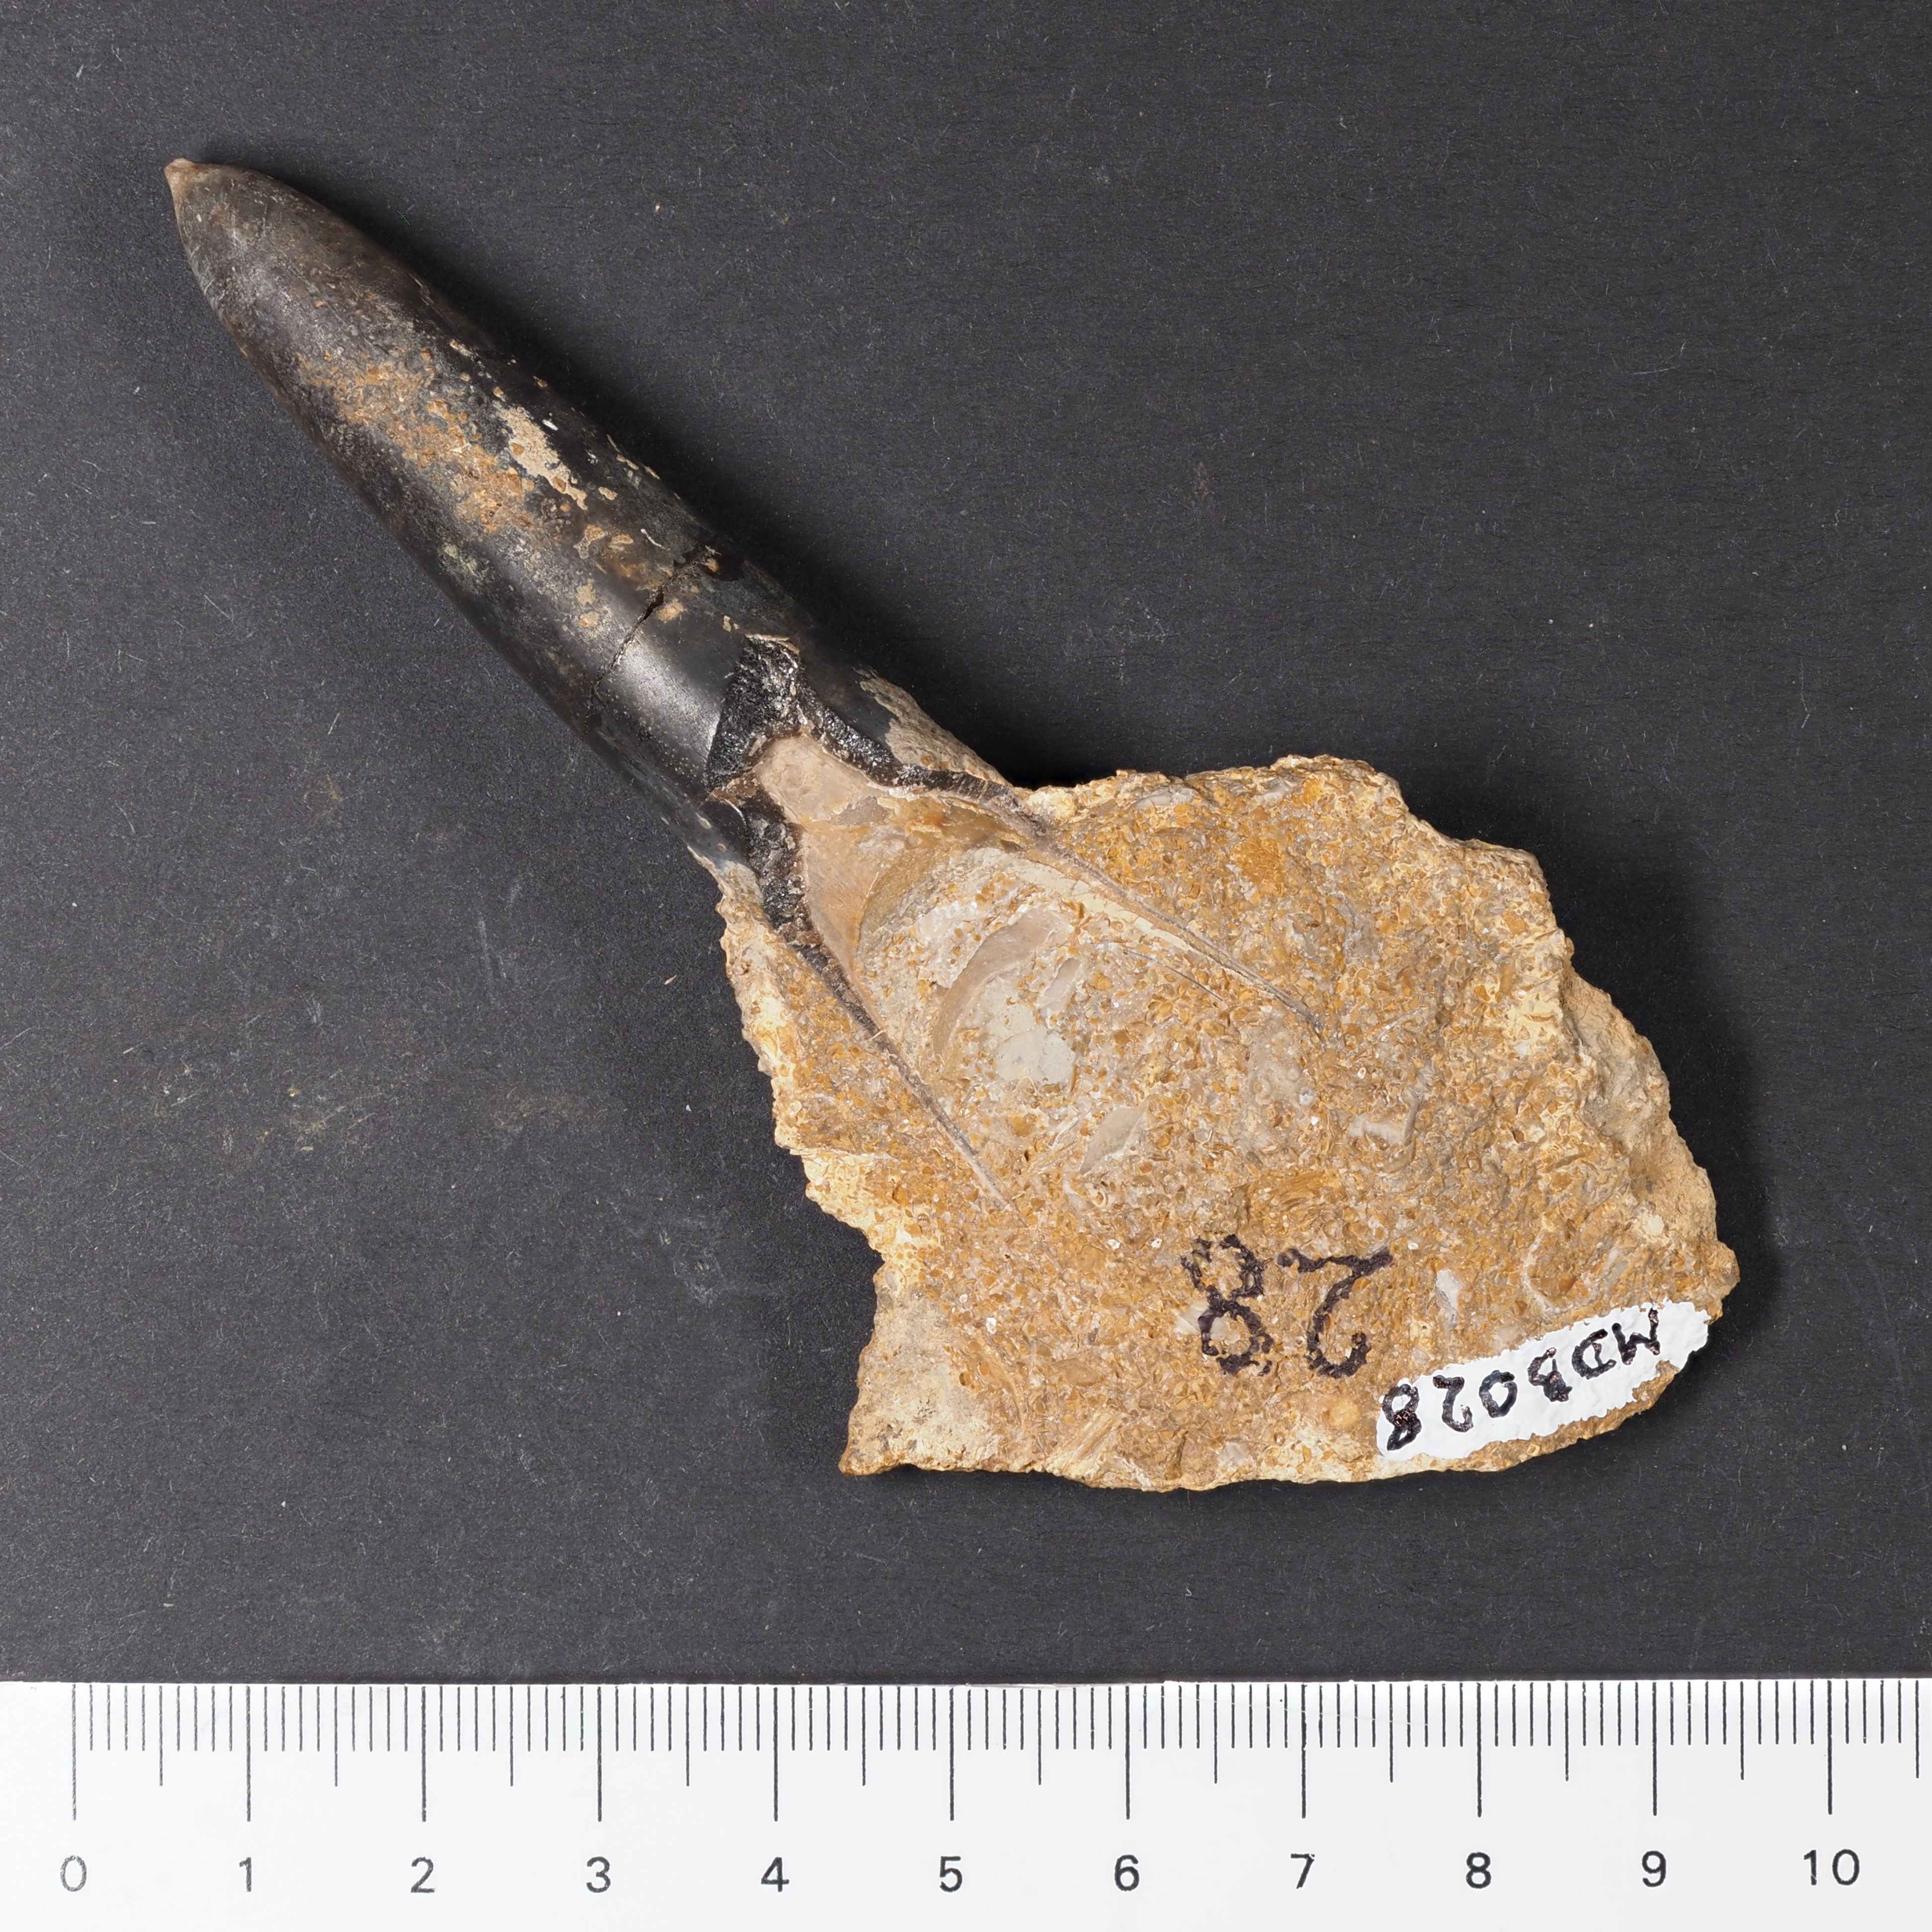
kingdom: Animalia
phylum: Mollusca
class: Cephalopoda
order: Belemnitida
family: Passaloteuthidae
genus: Brevibelus
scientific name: Brevibelus breviformis
